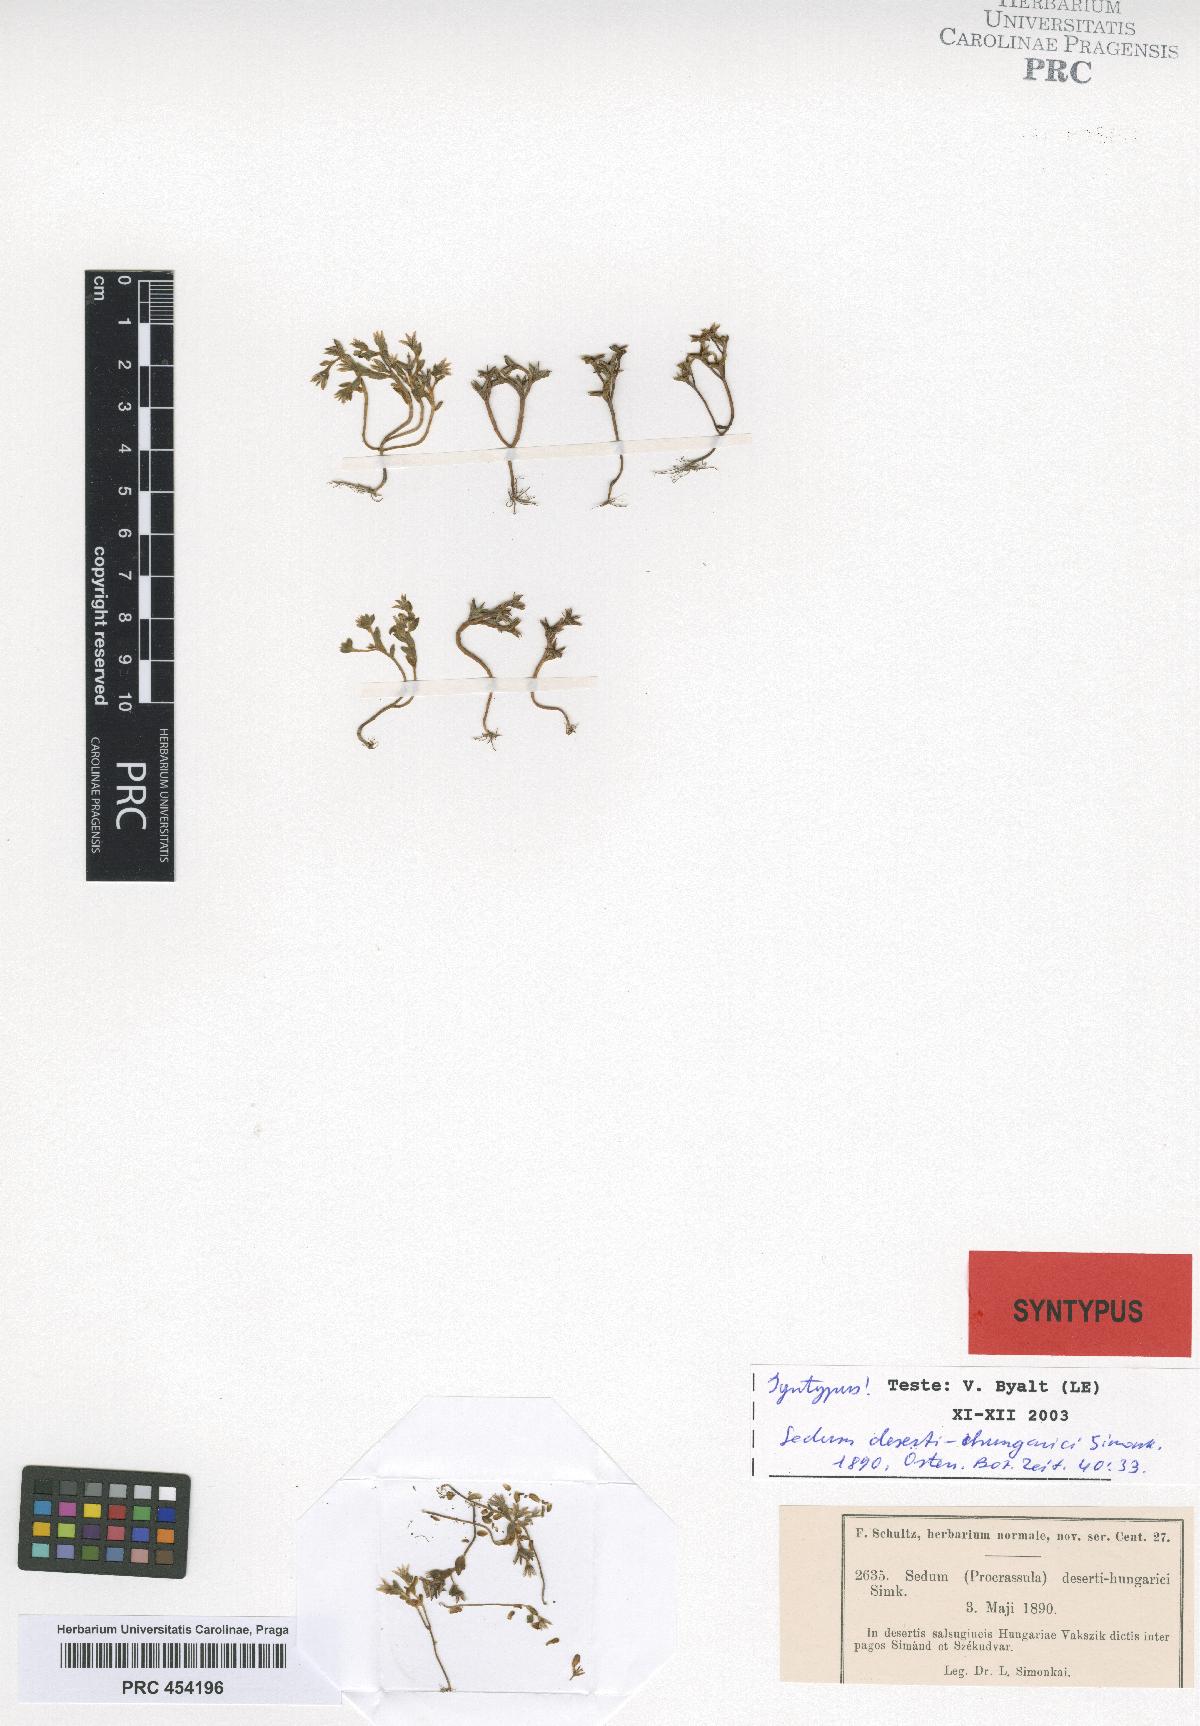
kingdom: Plantae
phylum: Tracheophyta
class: Magnoliopsida
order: Saxifragales
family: Crassulaceae
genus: Sedum
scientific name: Sedum cespitosum
